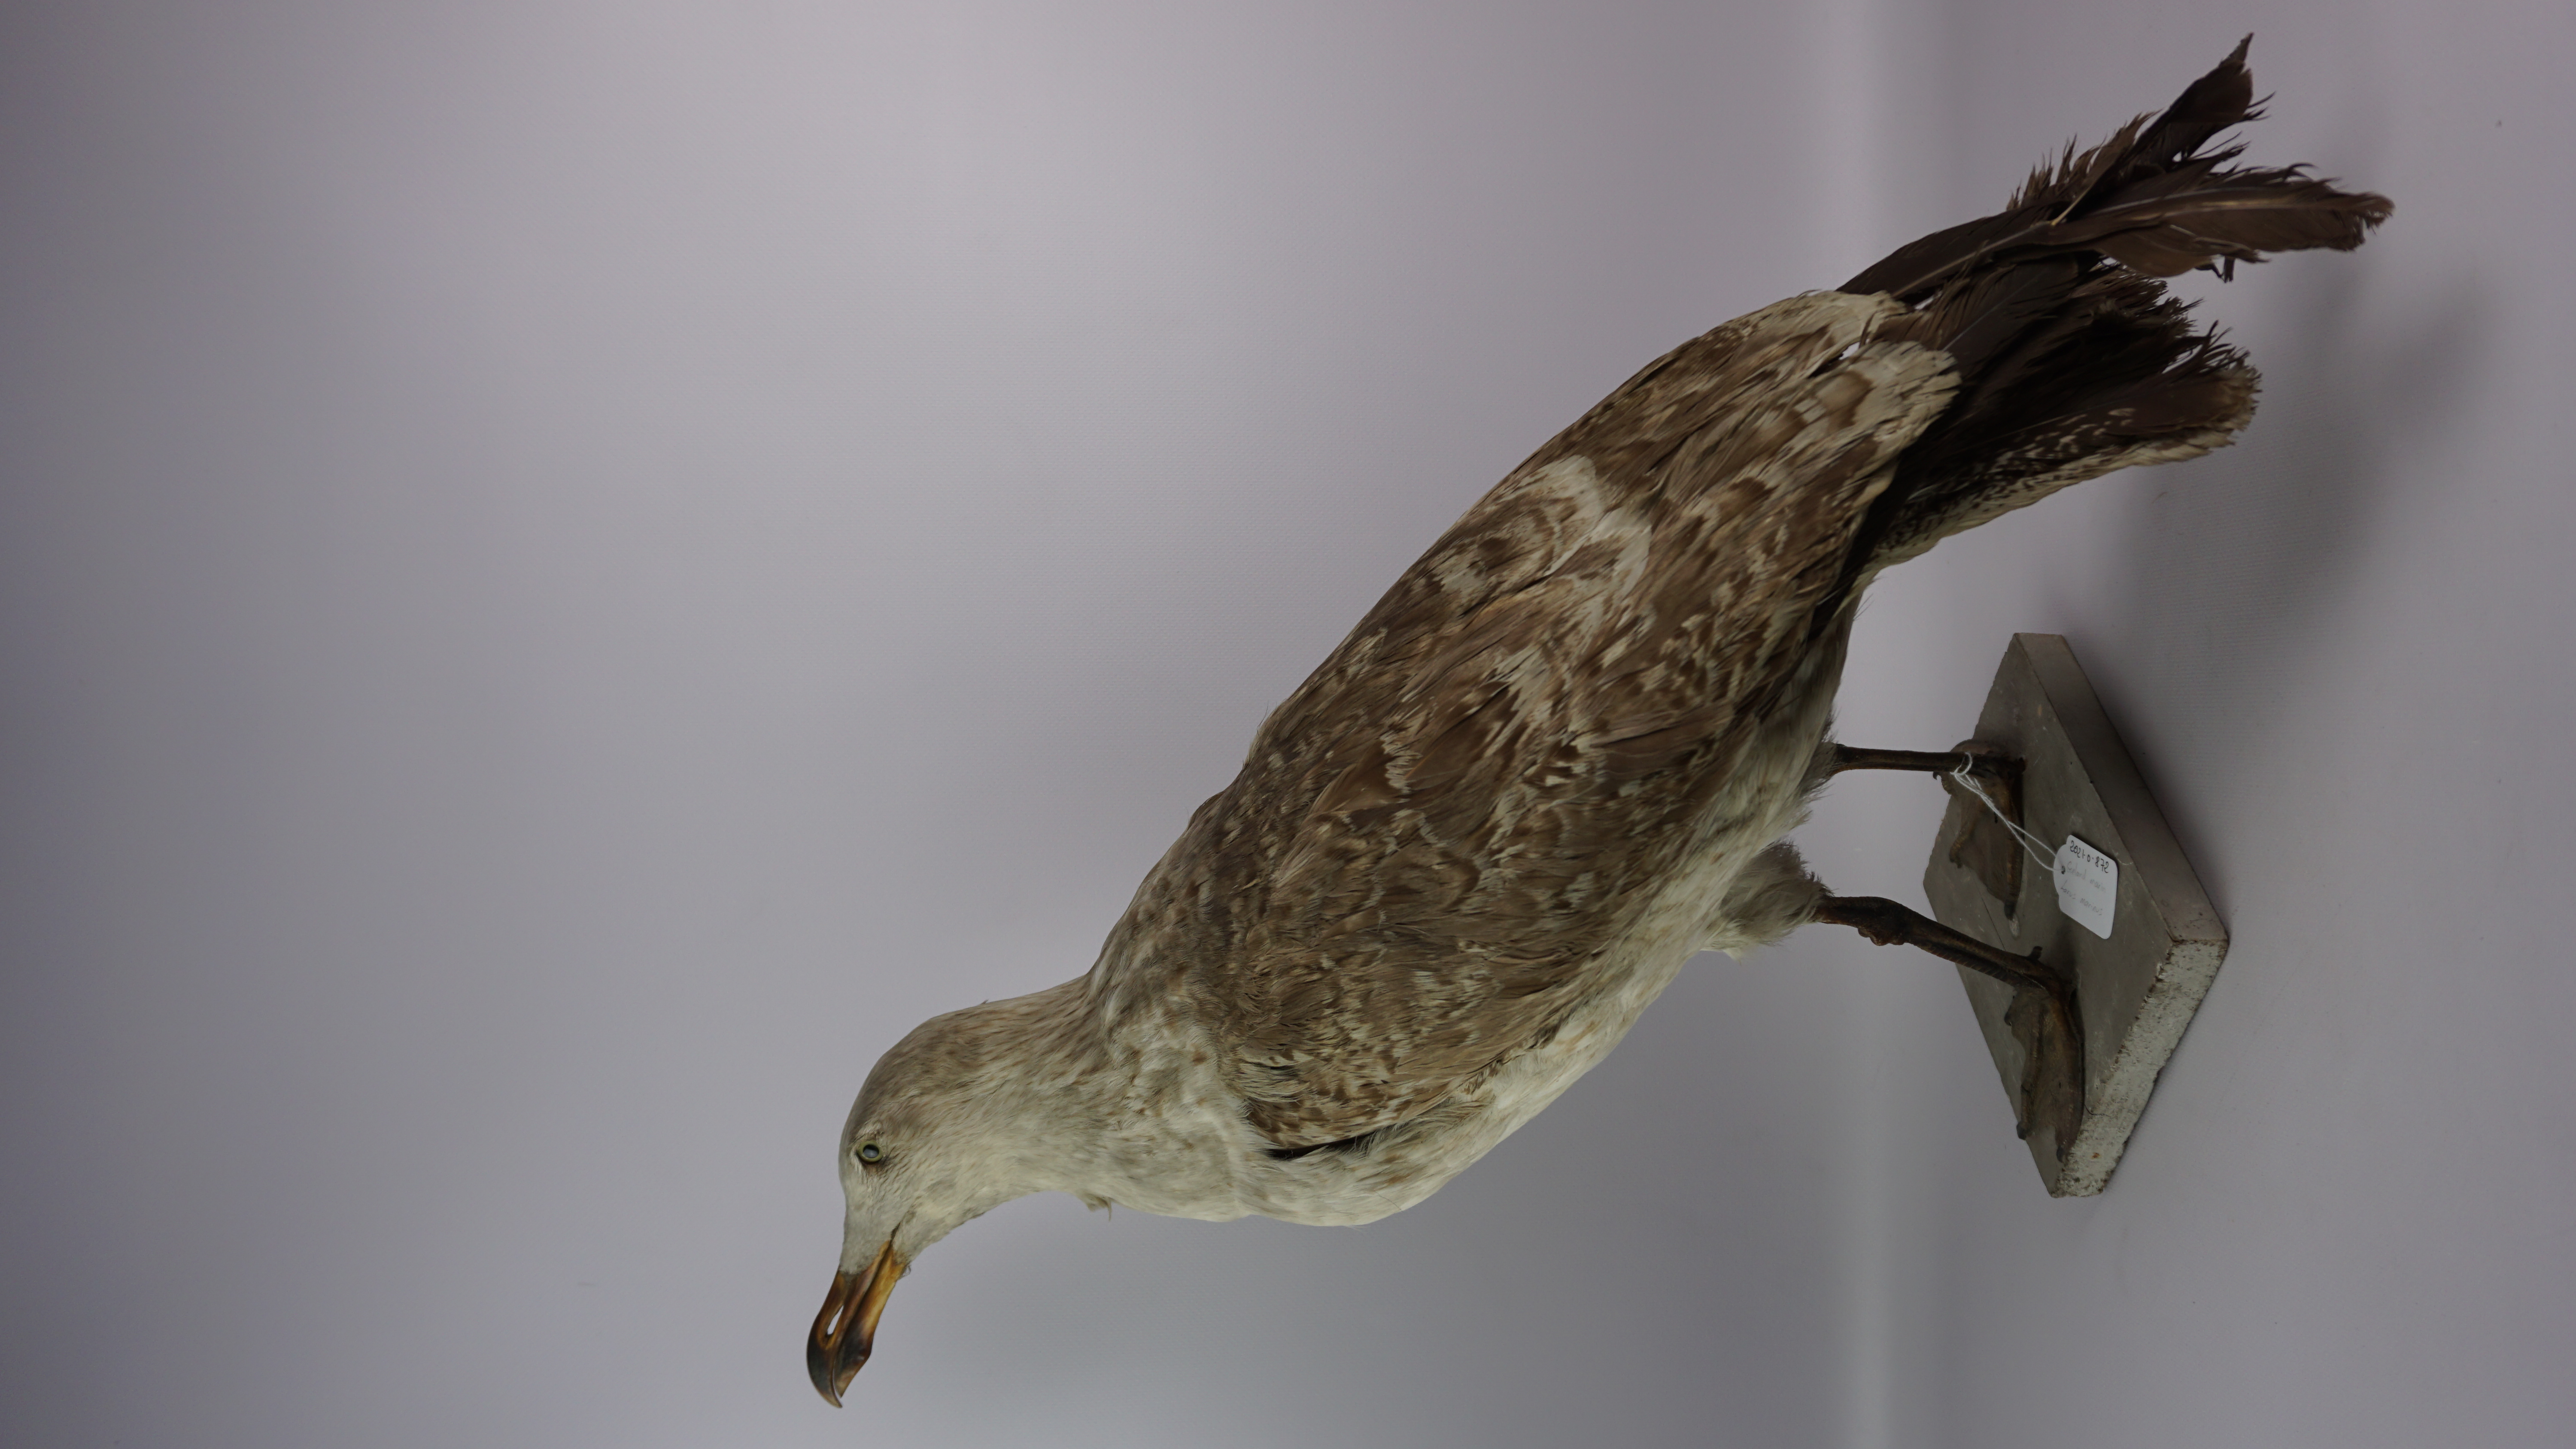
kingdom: Animalia
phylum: Chordata
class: Aves
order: Charadriiformes
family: Laridae
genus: Larus
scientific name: Larus marinus
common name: Great black-backed gull
